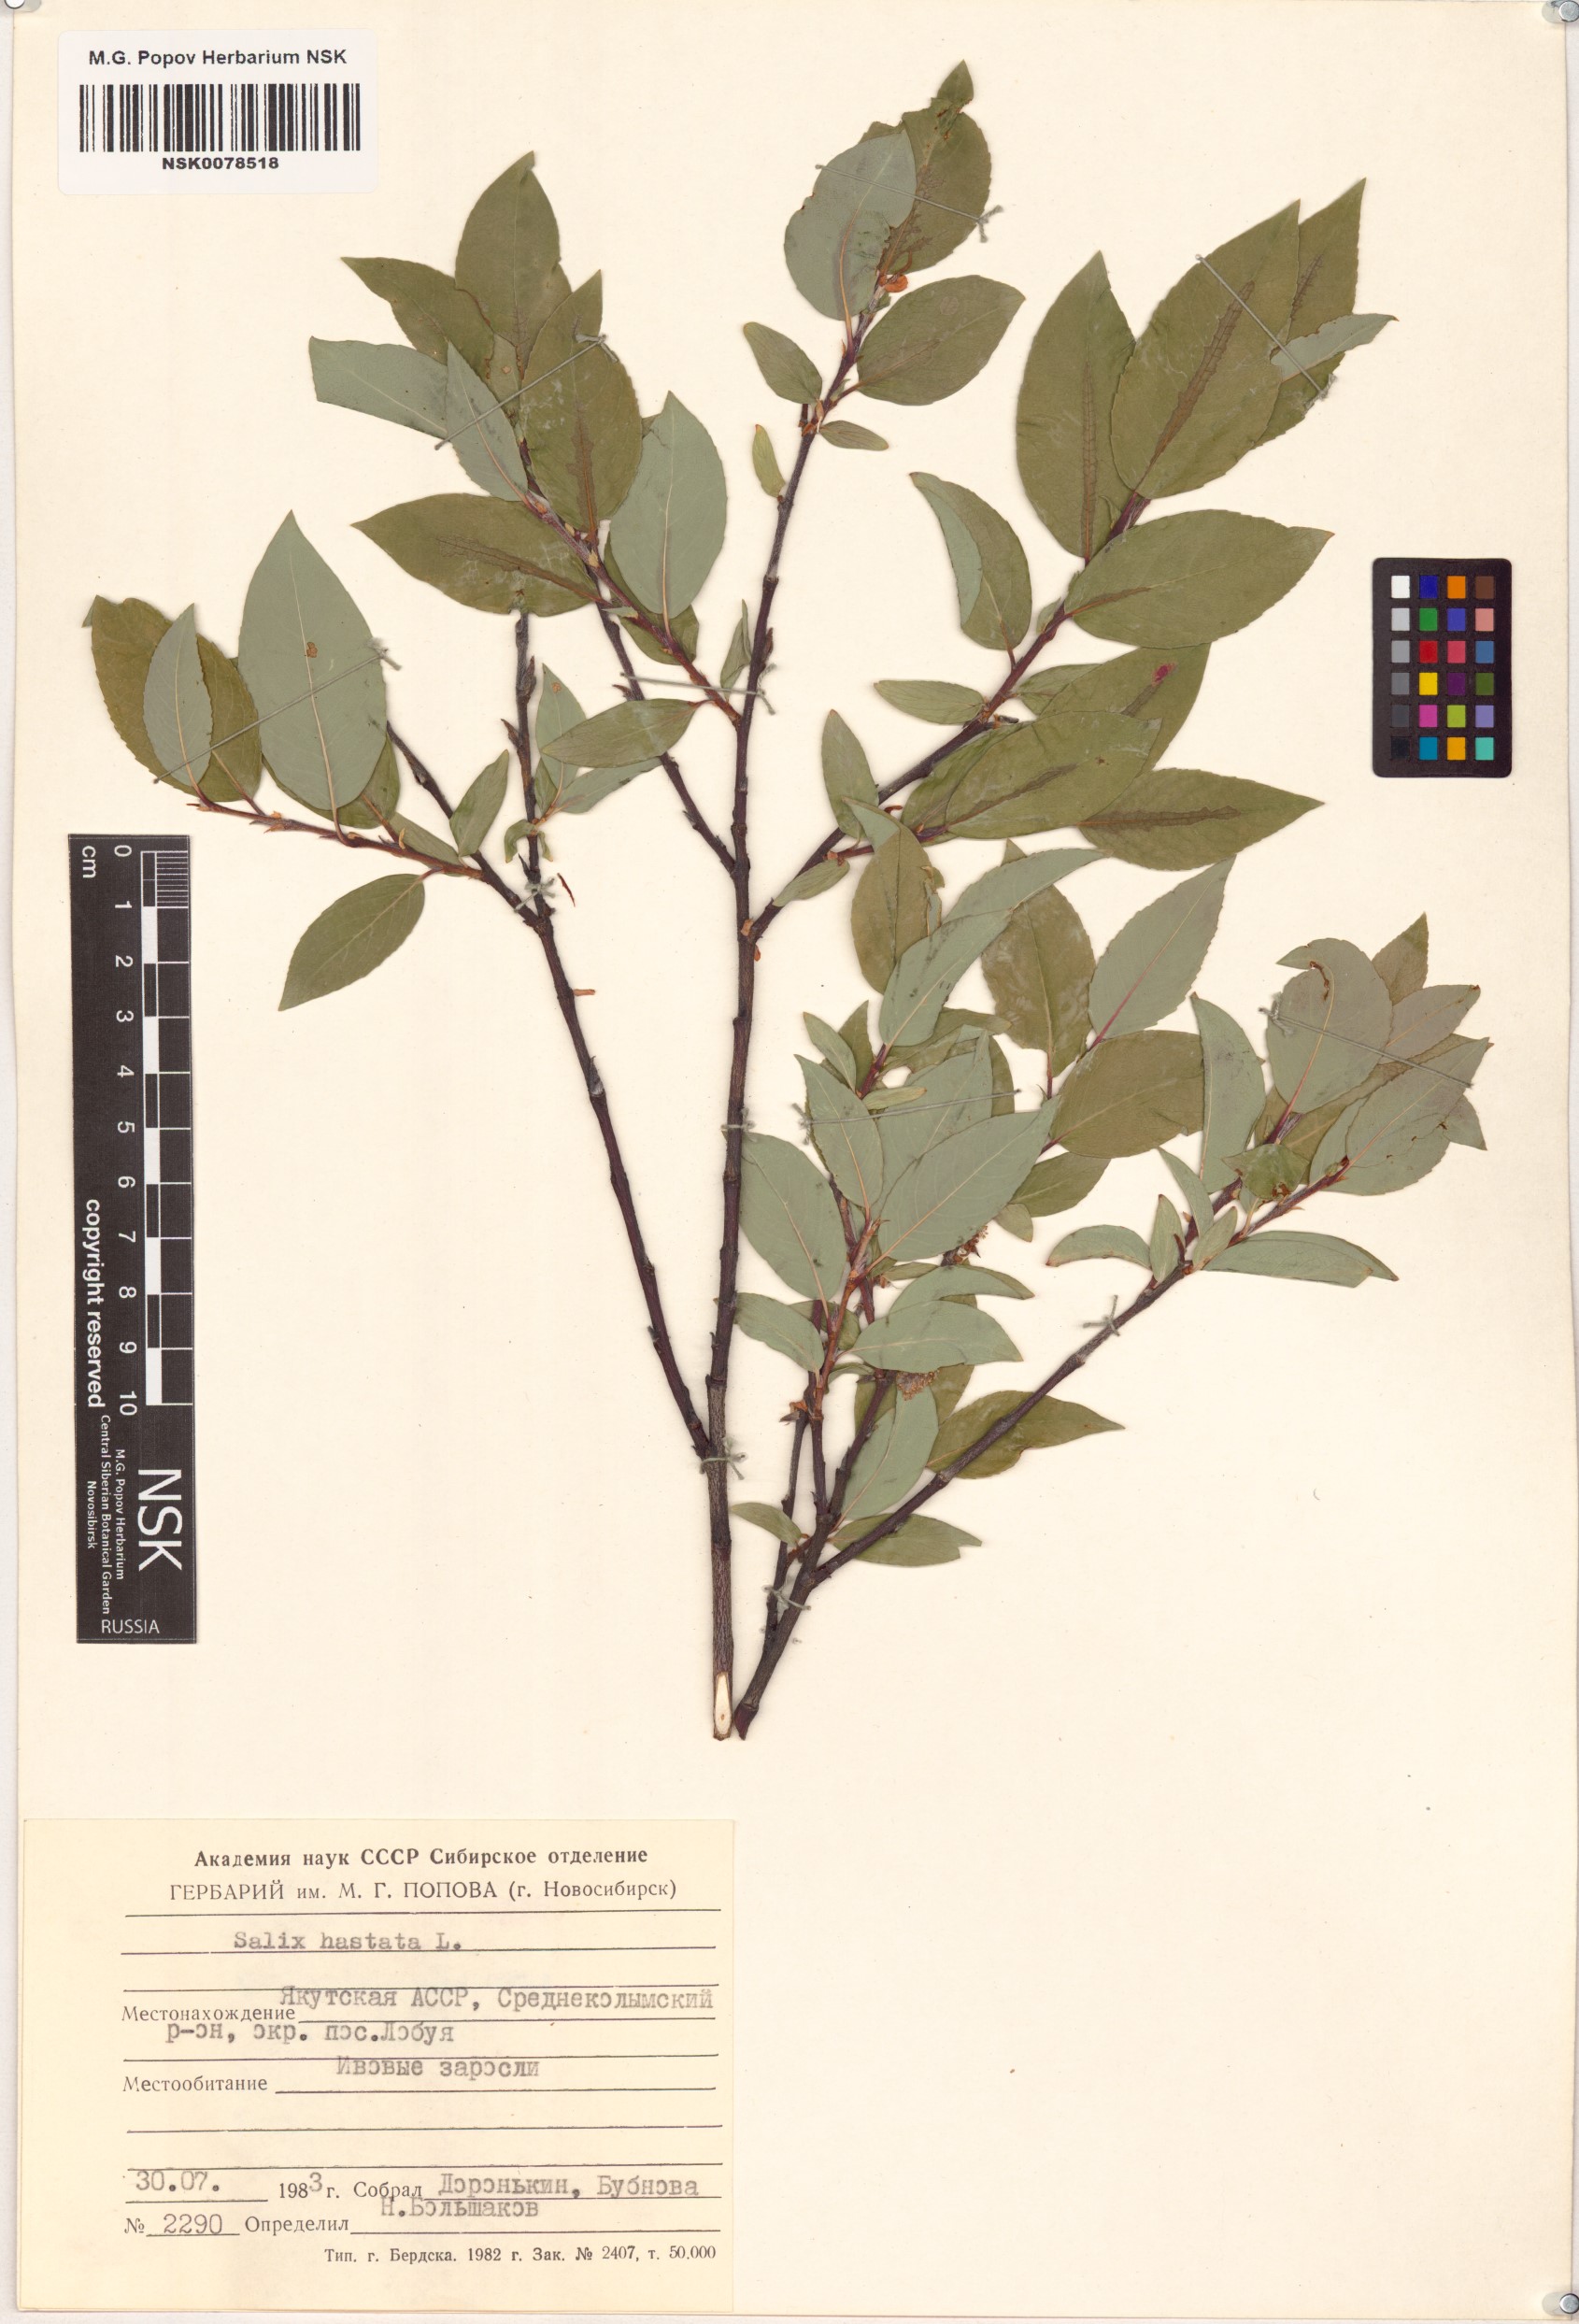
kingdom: Plantae
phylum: Tracheophyta
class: Magnoliopsida
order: Malpighiales
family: Salicaceae
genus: Salix
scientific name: Salix hastata
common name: Halberd willow
